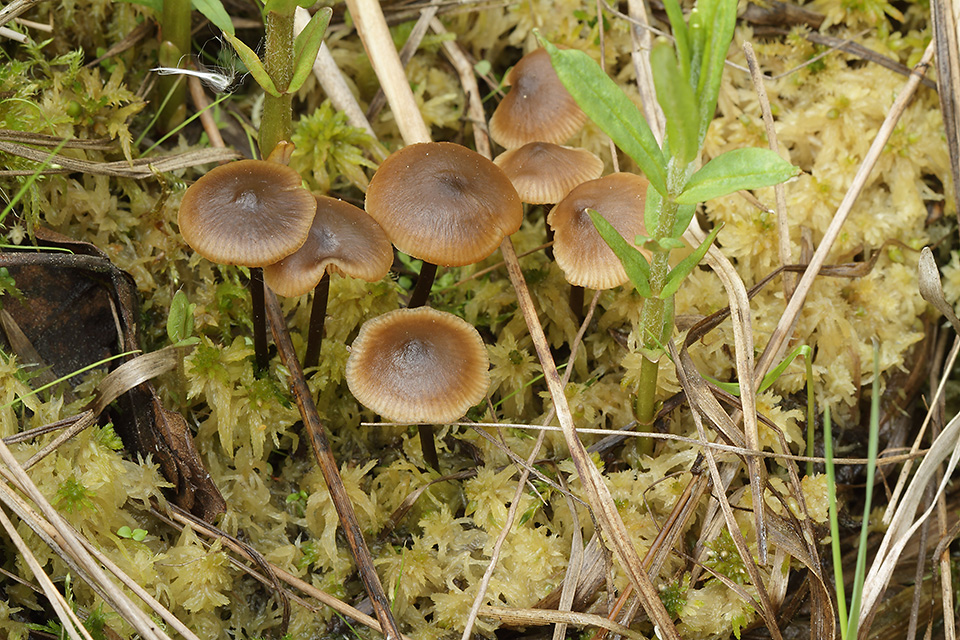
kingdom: Fungi
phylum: Basidiomycota
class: Agaricomycetes
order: Agaricales
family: Lyophyllaceae
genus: Sphagnurus
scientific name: Sphagnurus paluster
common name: tørvemos-gråblad
